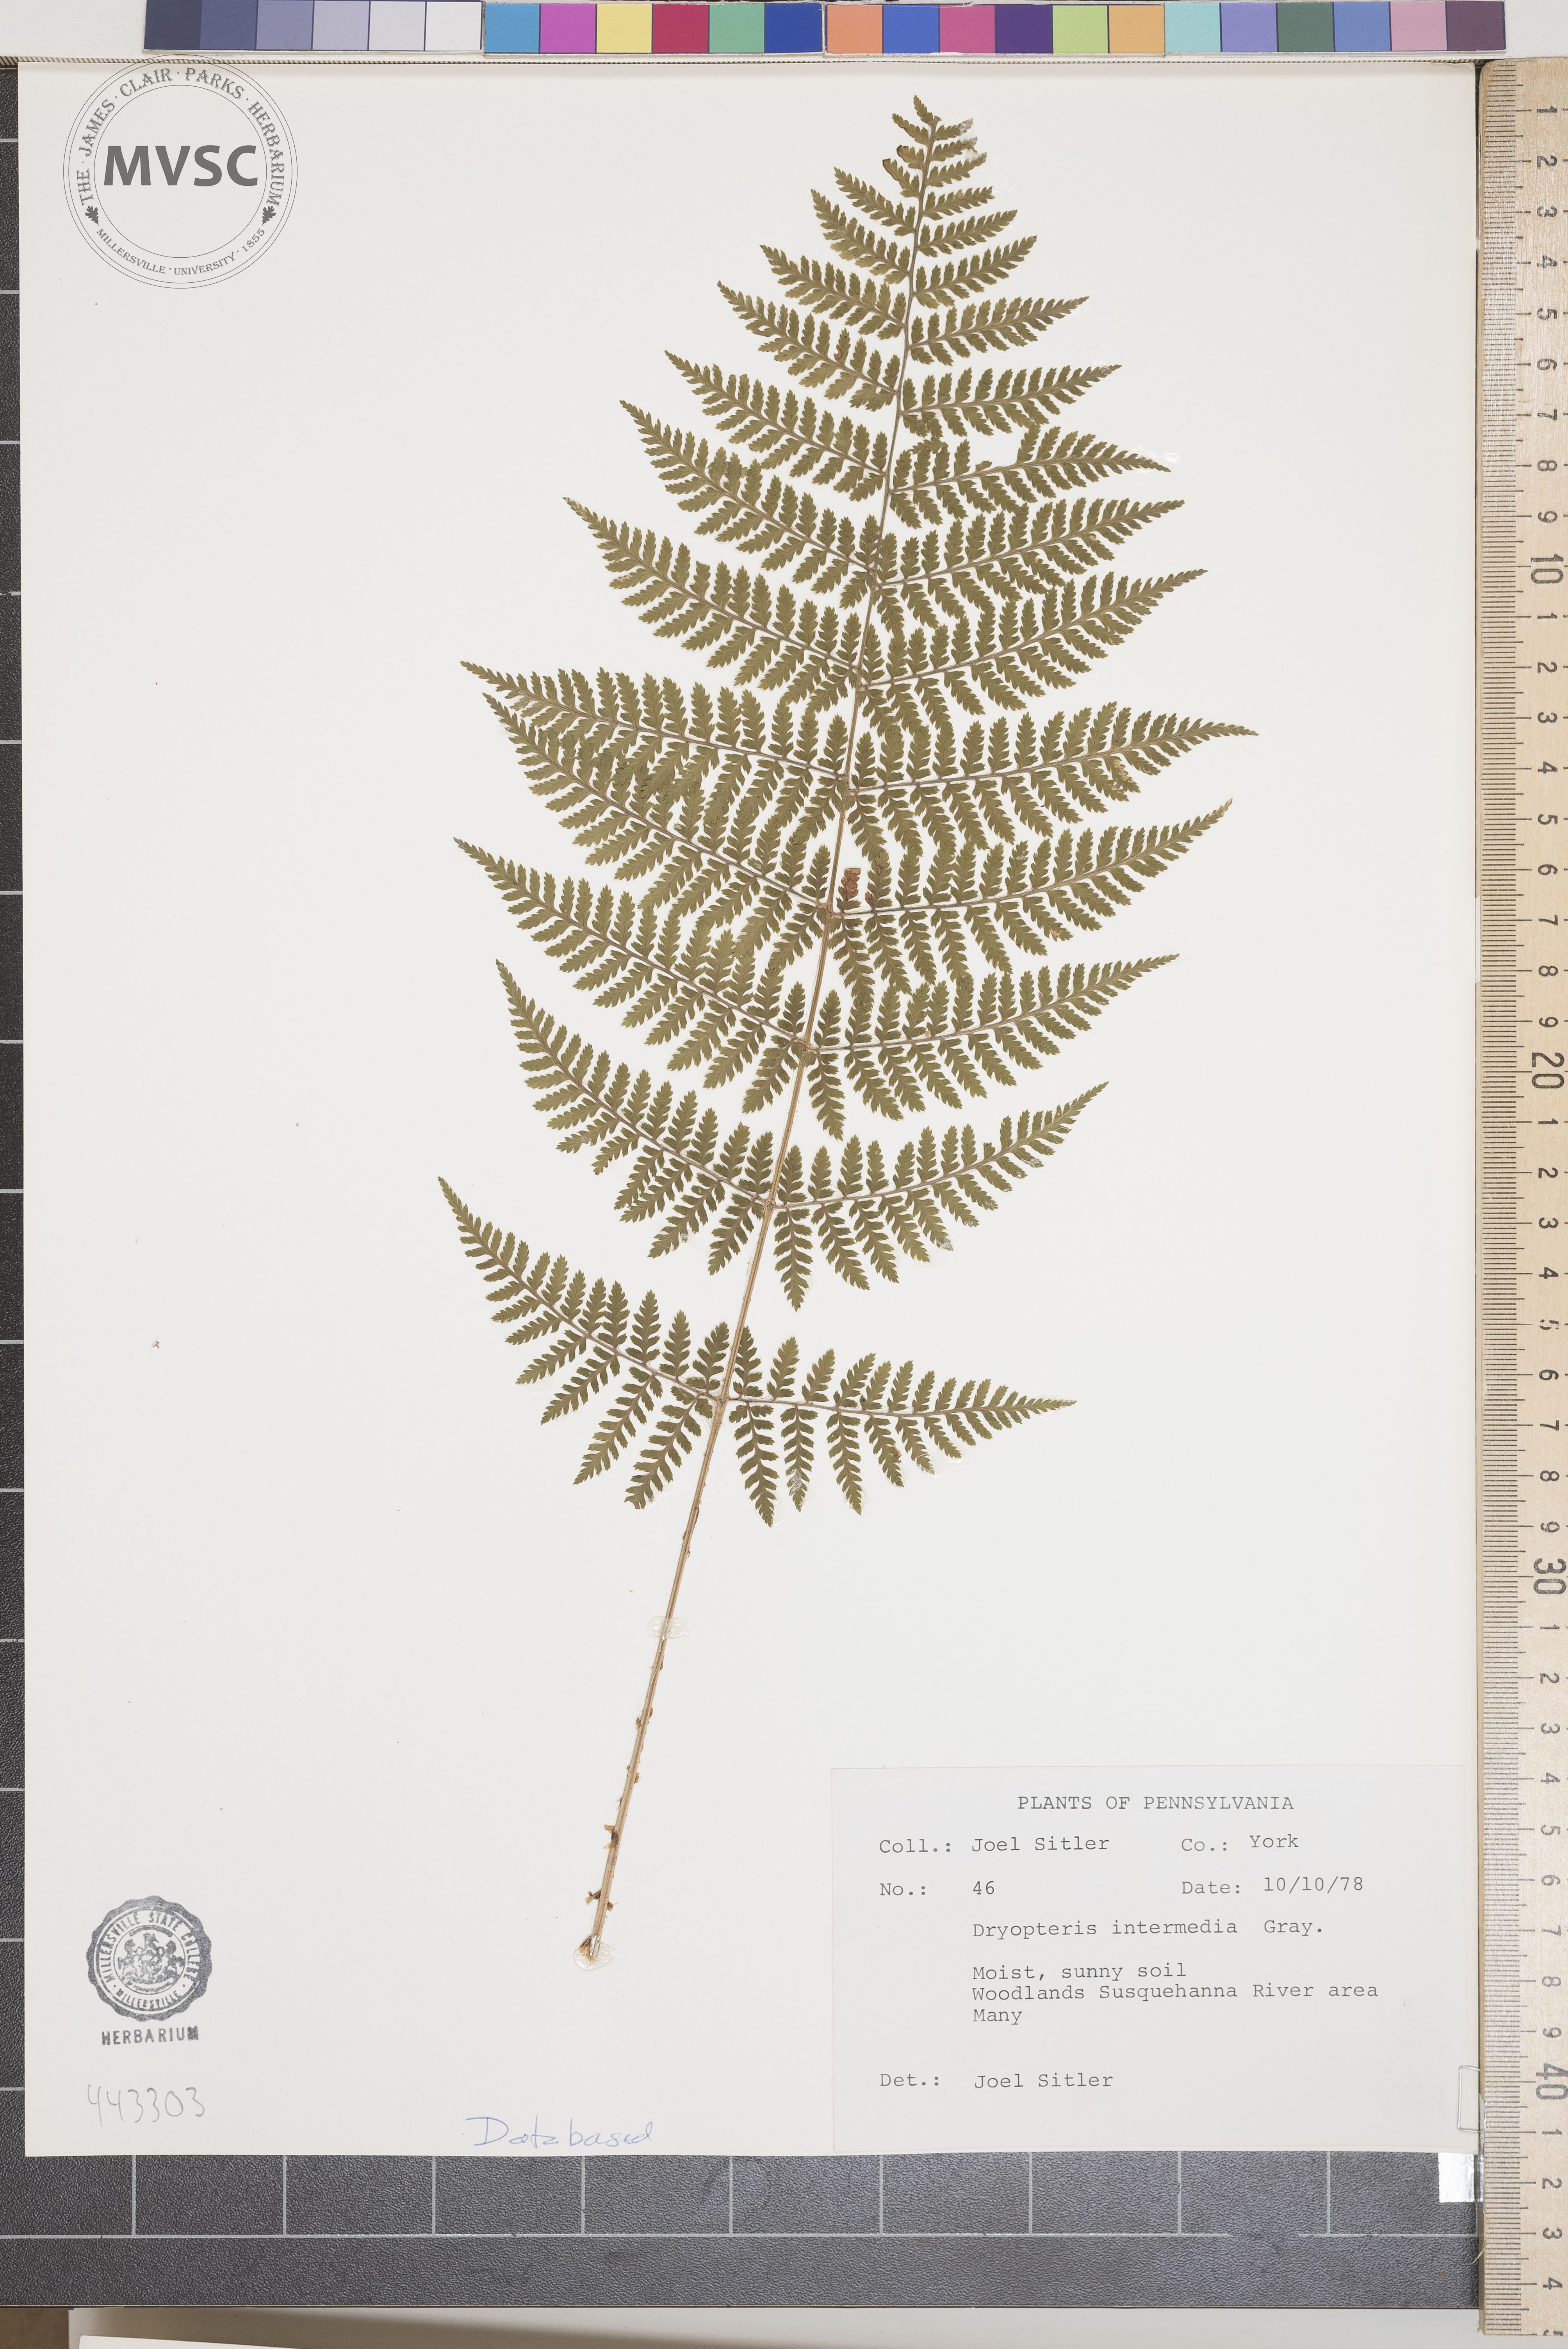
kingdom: Plantae
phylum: Tracheophyta
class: Polypodiopsida
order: Polypodiales
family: Dryopteridaceae
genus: Dryopteris
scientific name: Dryopteris intermedia
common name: Evergreen wood fern
